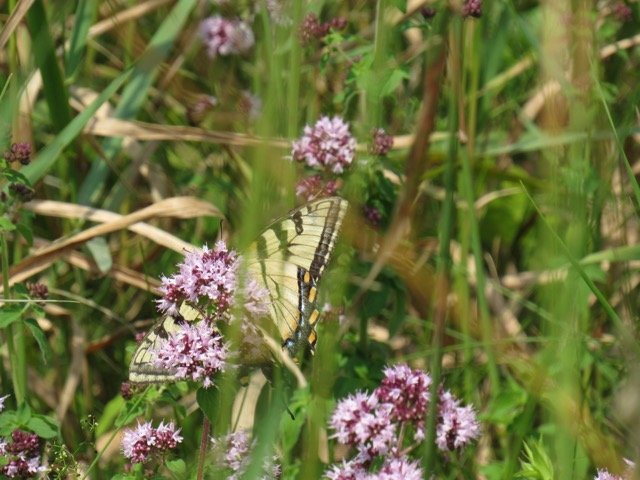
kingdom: Animalia
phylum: Arthropoda
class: Insecta
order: Lepidoptera
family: Papilionidae
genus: Pterourus
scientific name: Pterourus
